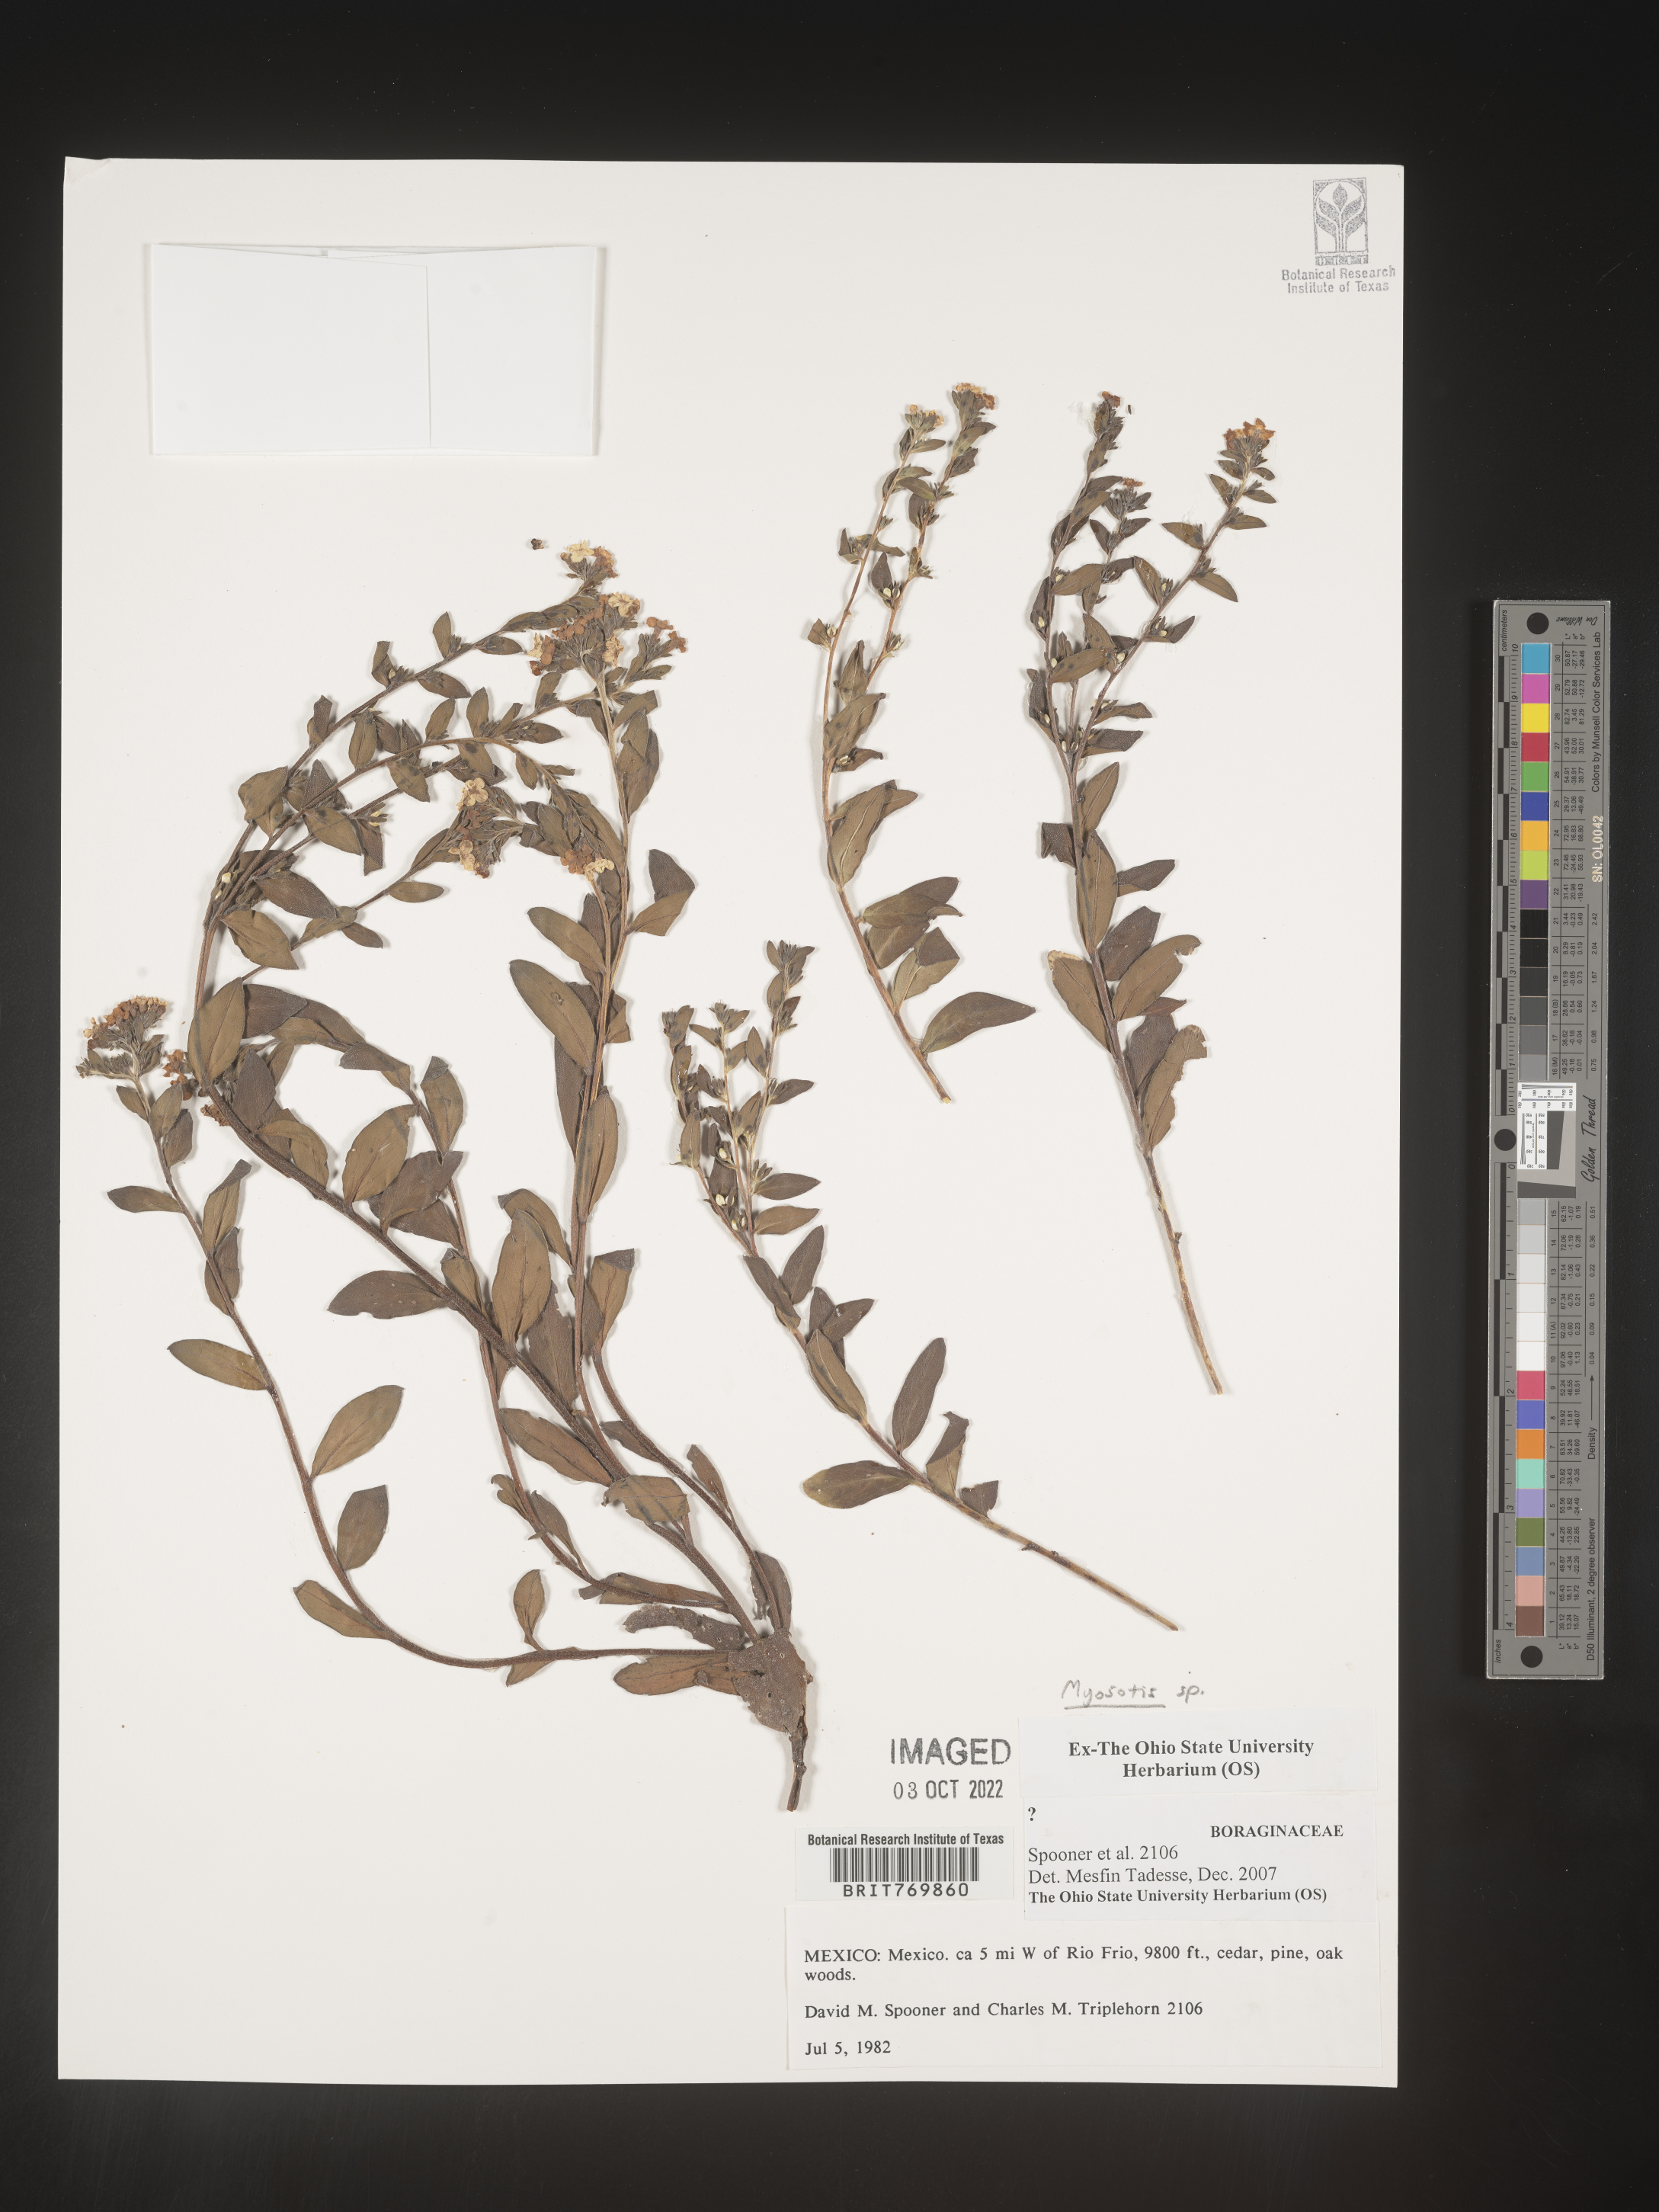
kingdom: Plantae
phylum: Tracheophyta
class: Magnoliopsida
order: Boraginales
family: Boraginaceae
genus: Myosotis
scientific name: Myosotis
